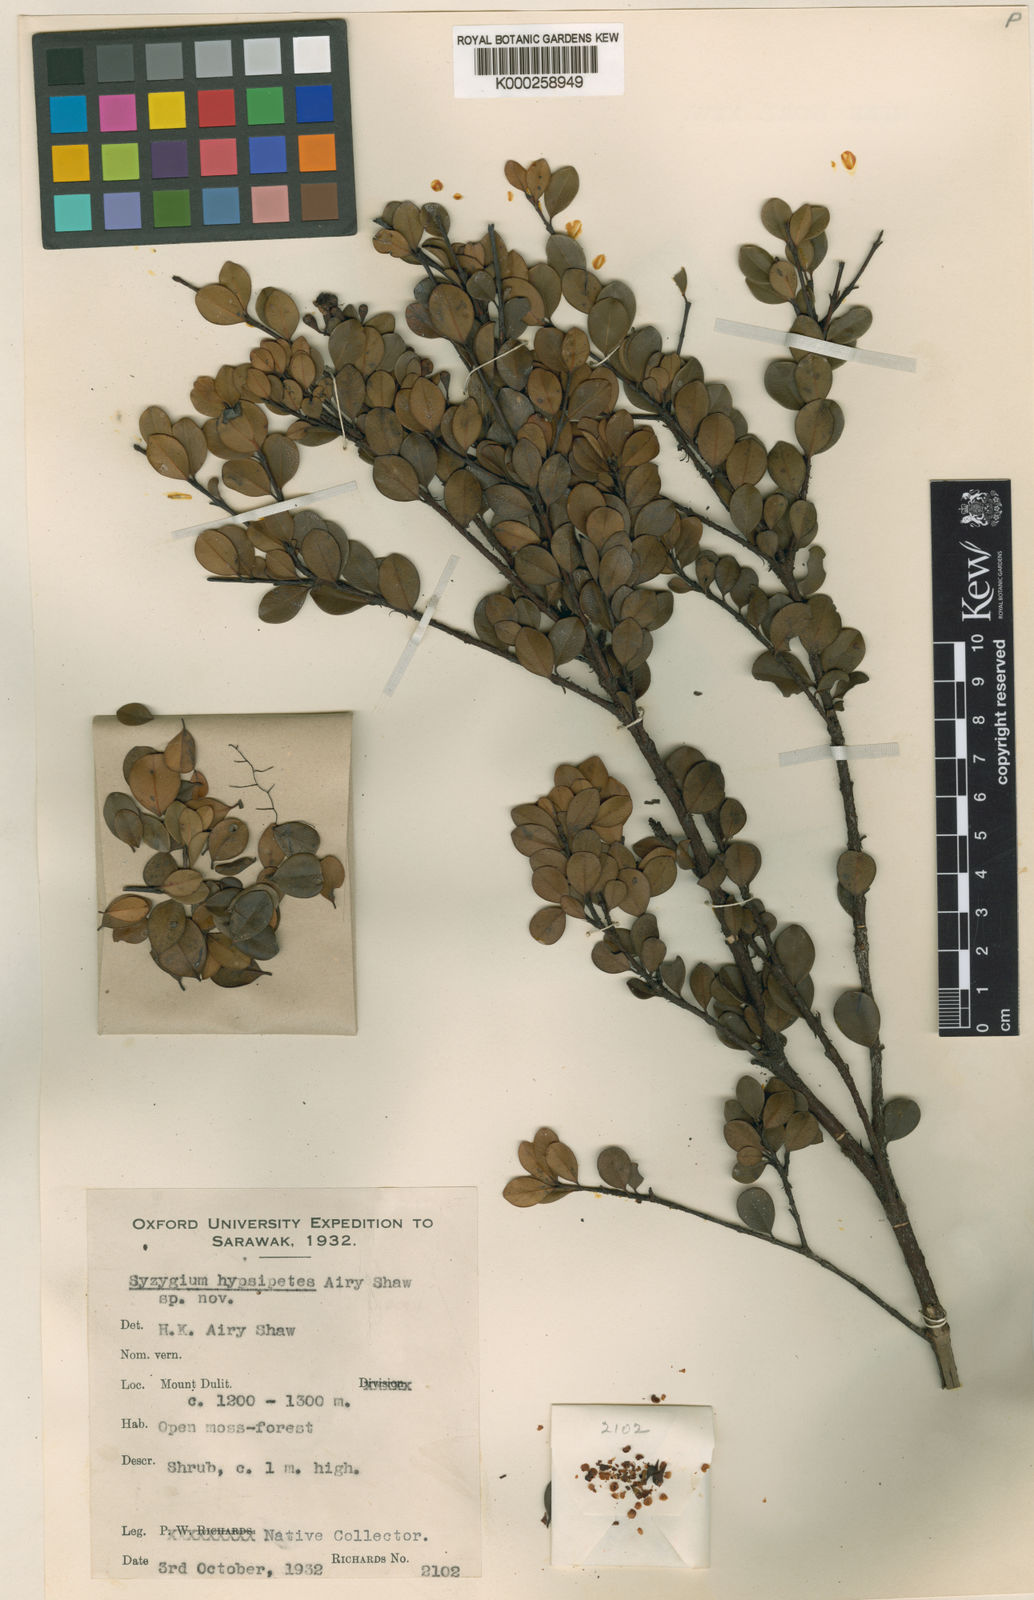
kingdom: Plantae
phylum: Tracheophyta
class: Magnoliopsida
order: Myrtales
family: Myrtaceae
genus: Syzygium
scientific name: Syzygium hypsipetes
